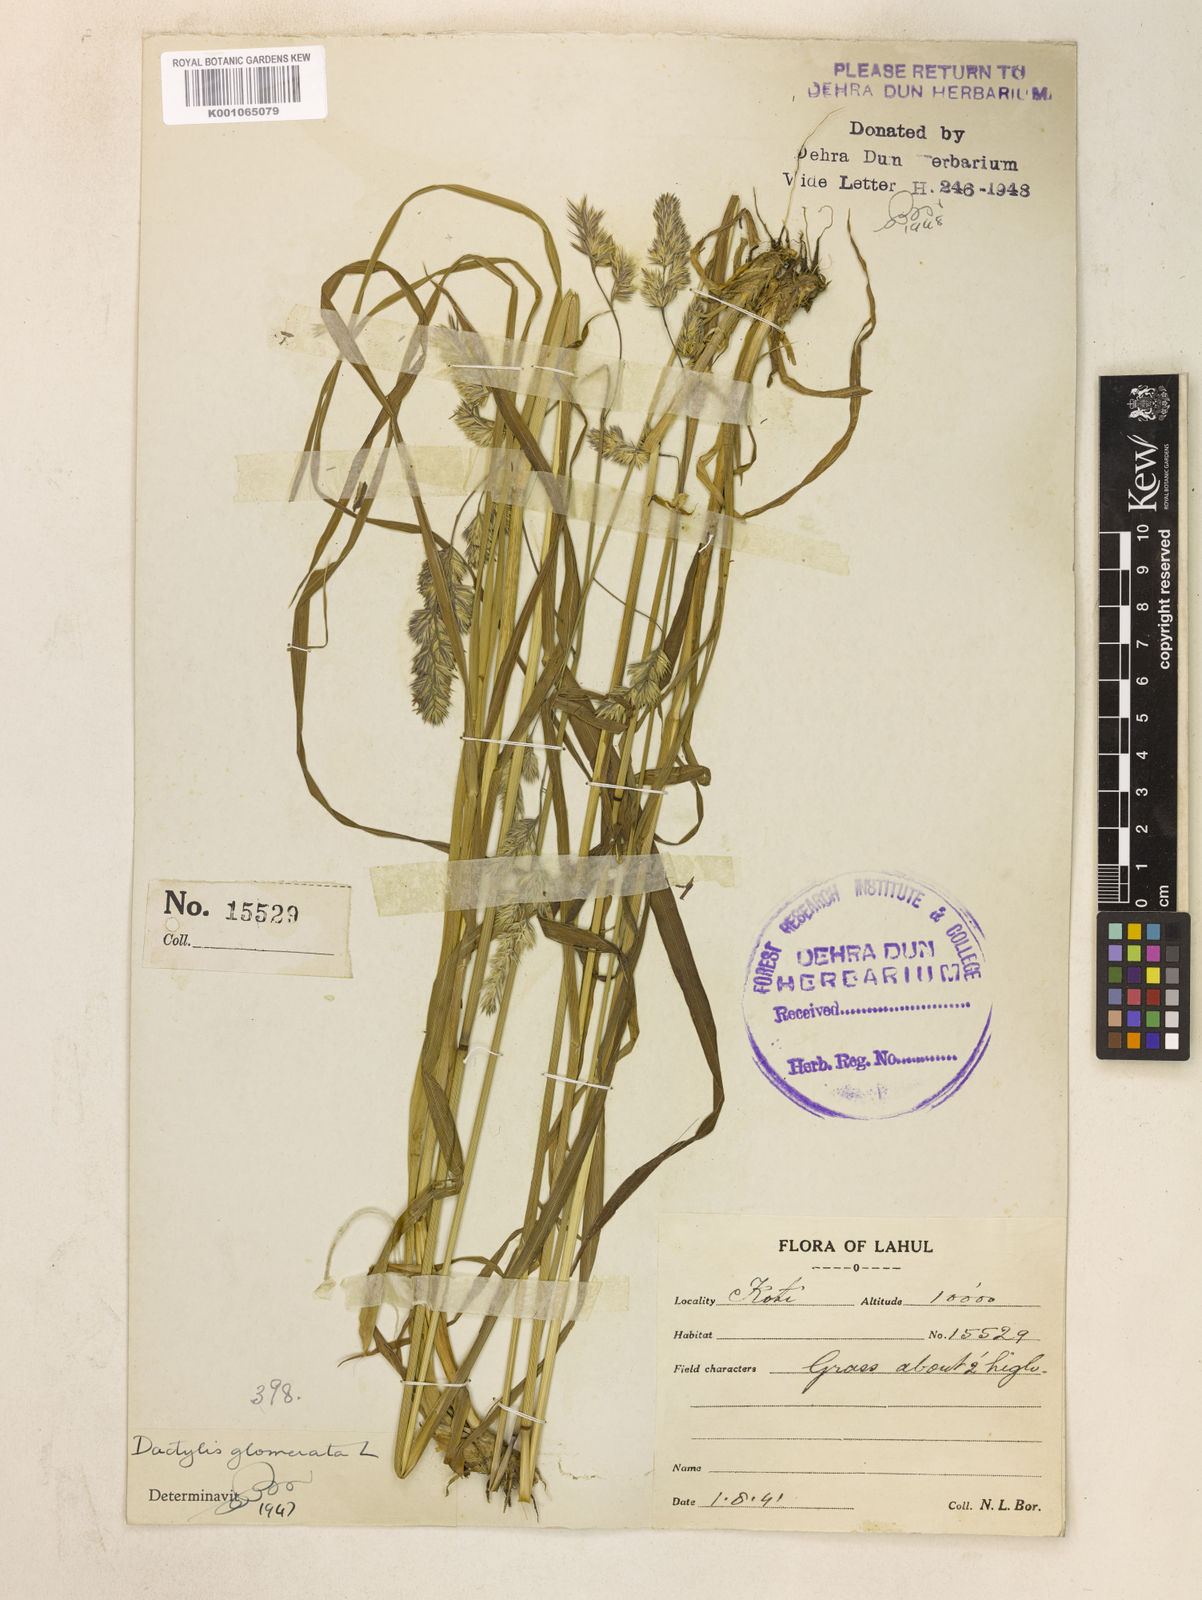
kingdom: Plantae
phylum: Tracheophyta
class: Liliopsida
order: Poales
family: Poaceae
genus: Dactylis
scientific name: Dactylis glomerata
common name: Orchardgrass
